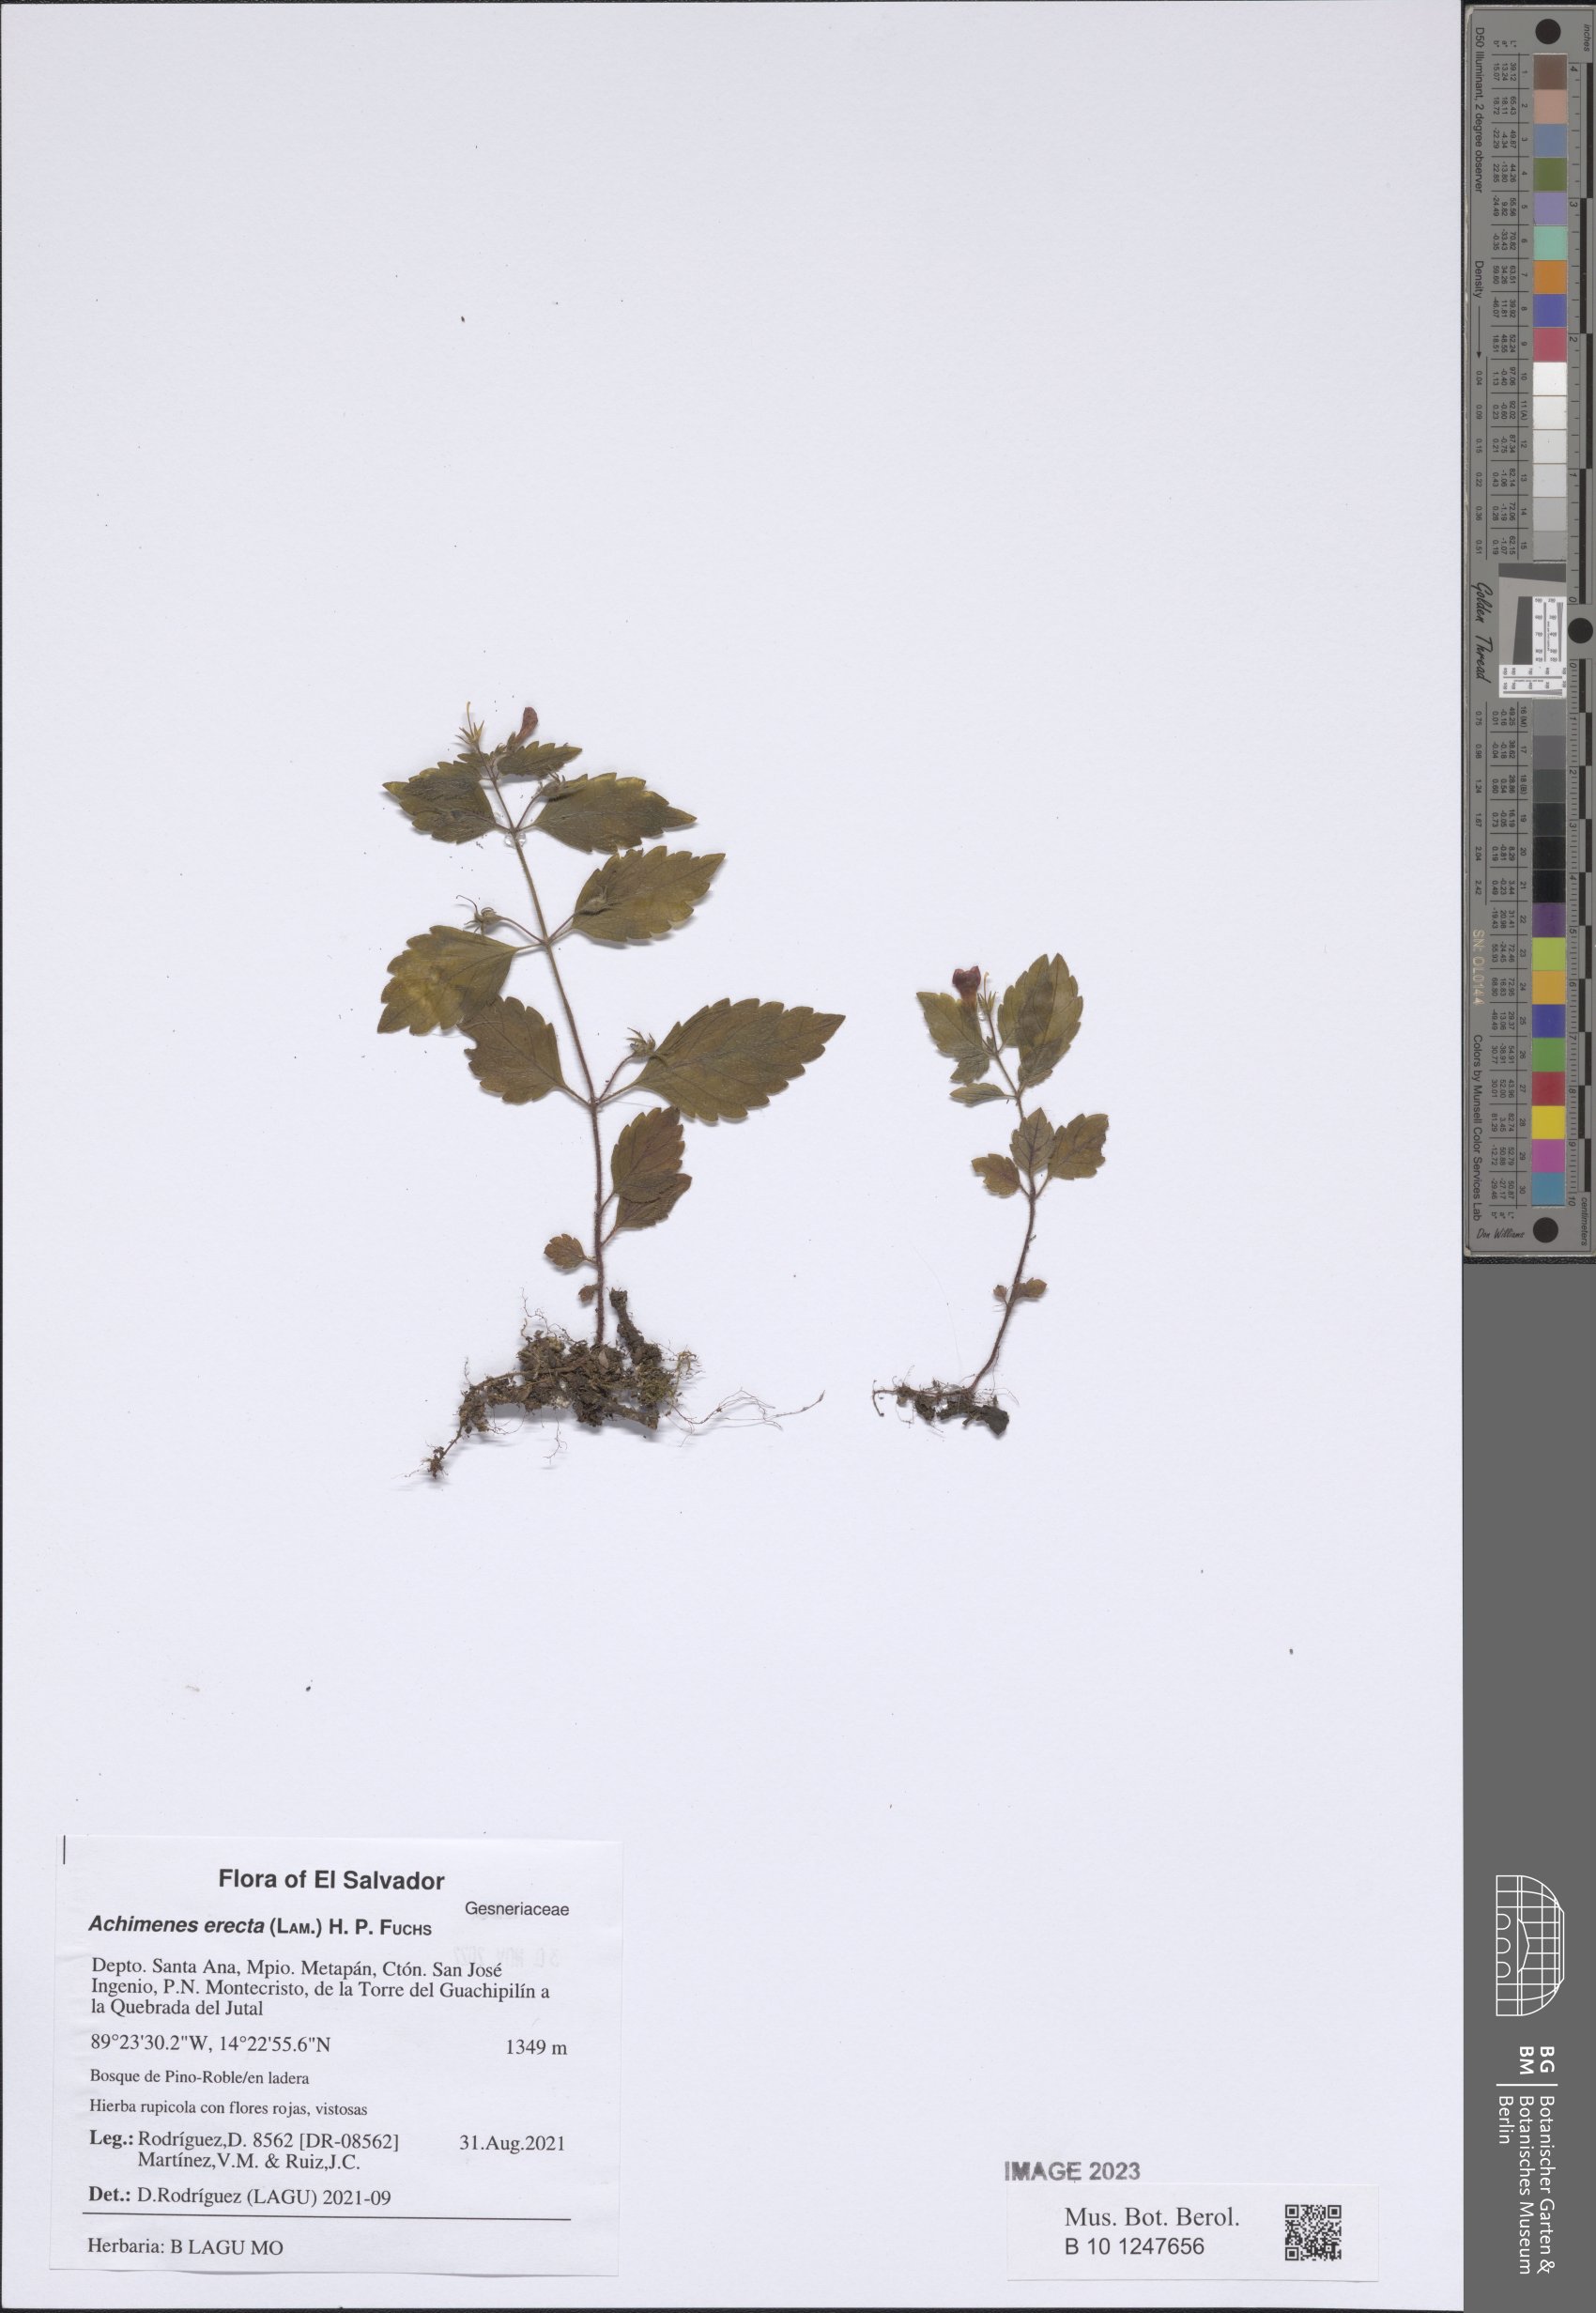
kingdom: Plantae
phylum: Tracheophyta
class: Magnoliopsida
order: Lamiales
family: Gesneriaceae
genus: Achimenes
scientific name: Achimenes erecta
